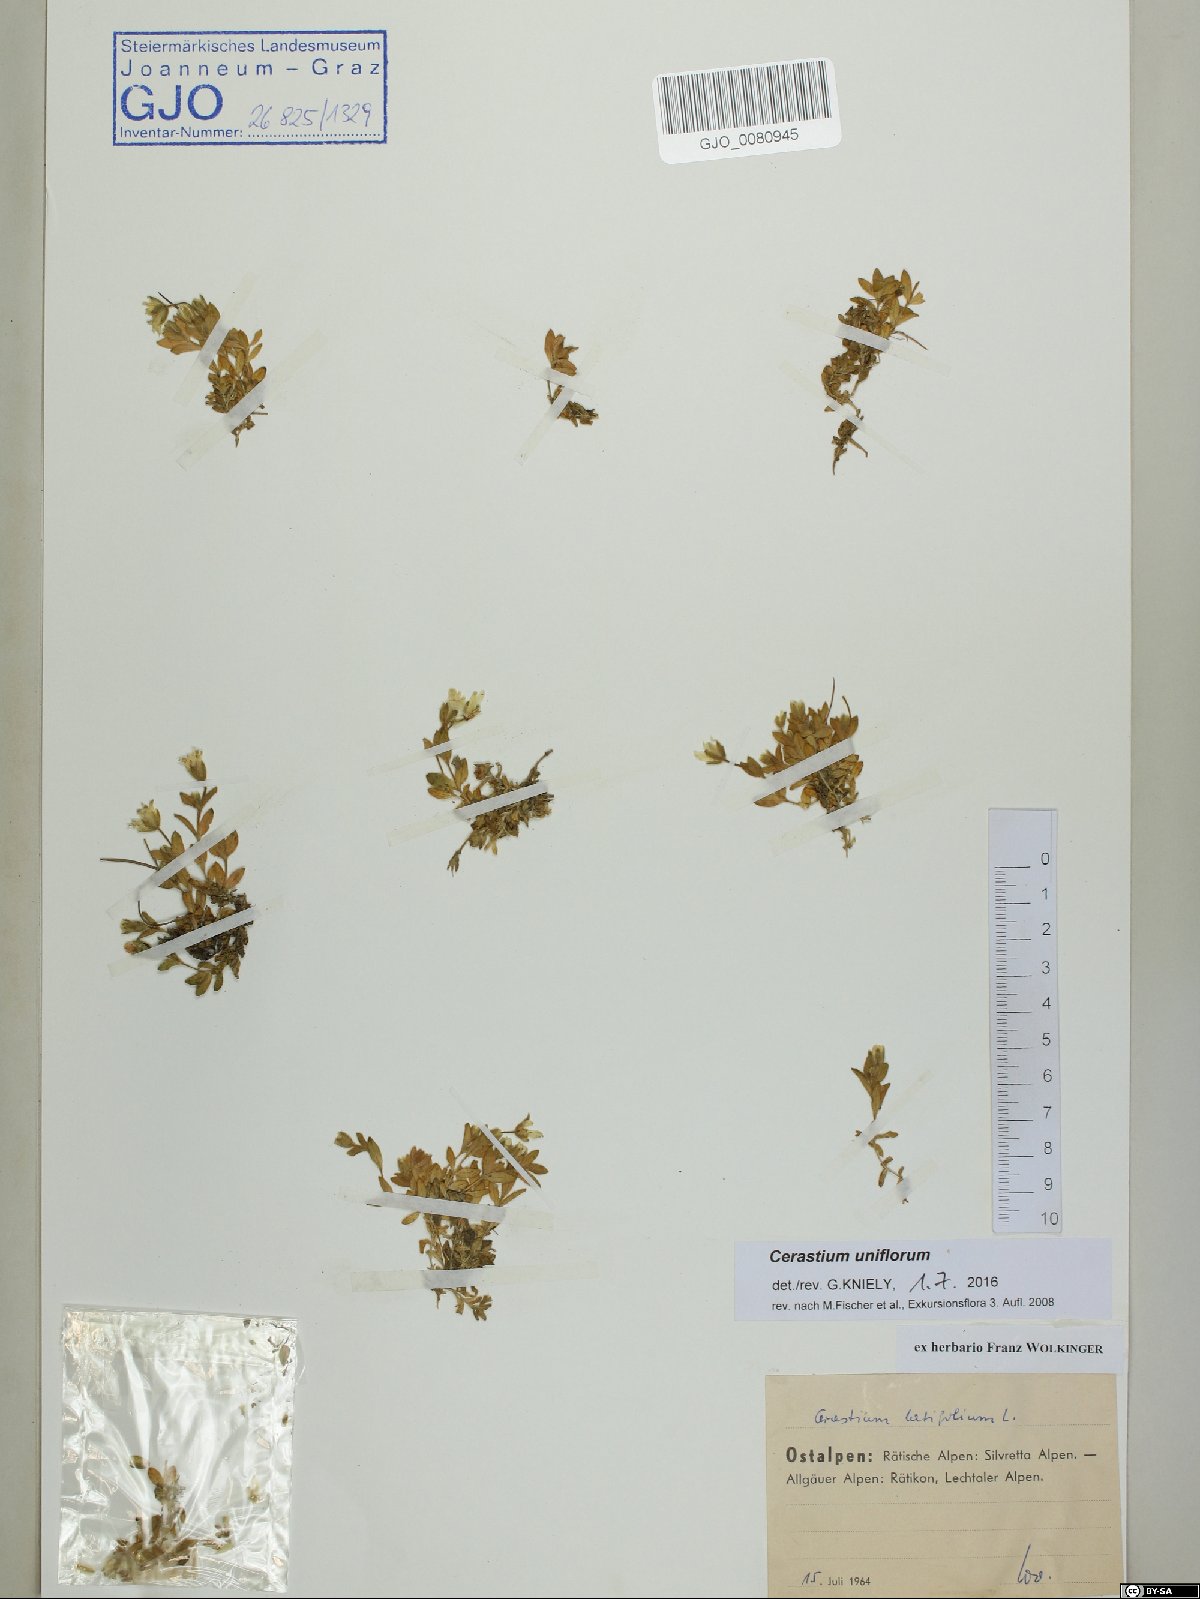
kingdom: Plantae
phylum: Tracheophyta
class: Magnoliopsida
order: Caryophyllales
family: Caryophyllaceae
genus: Cerastium
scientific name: Cerastium uniflorum
